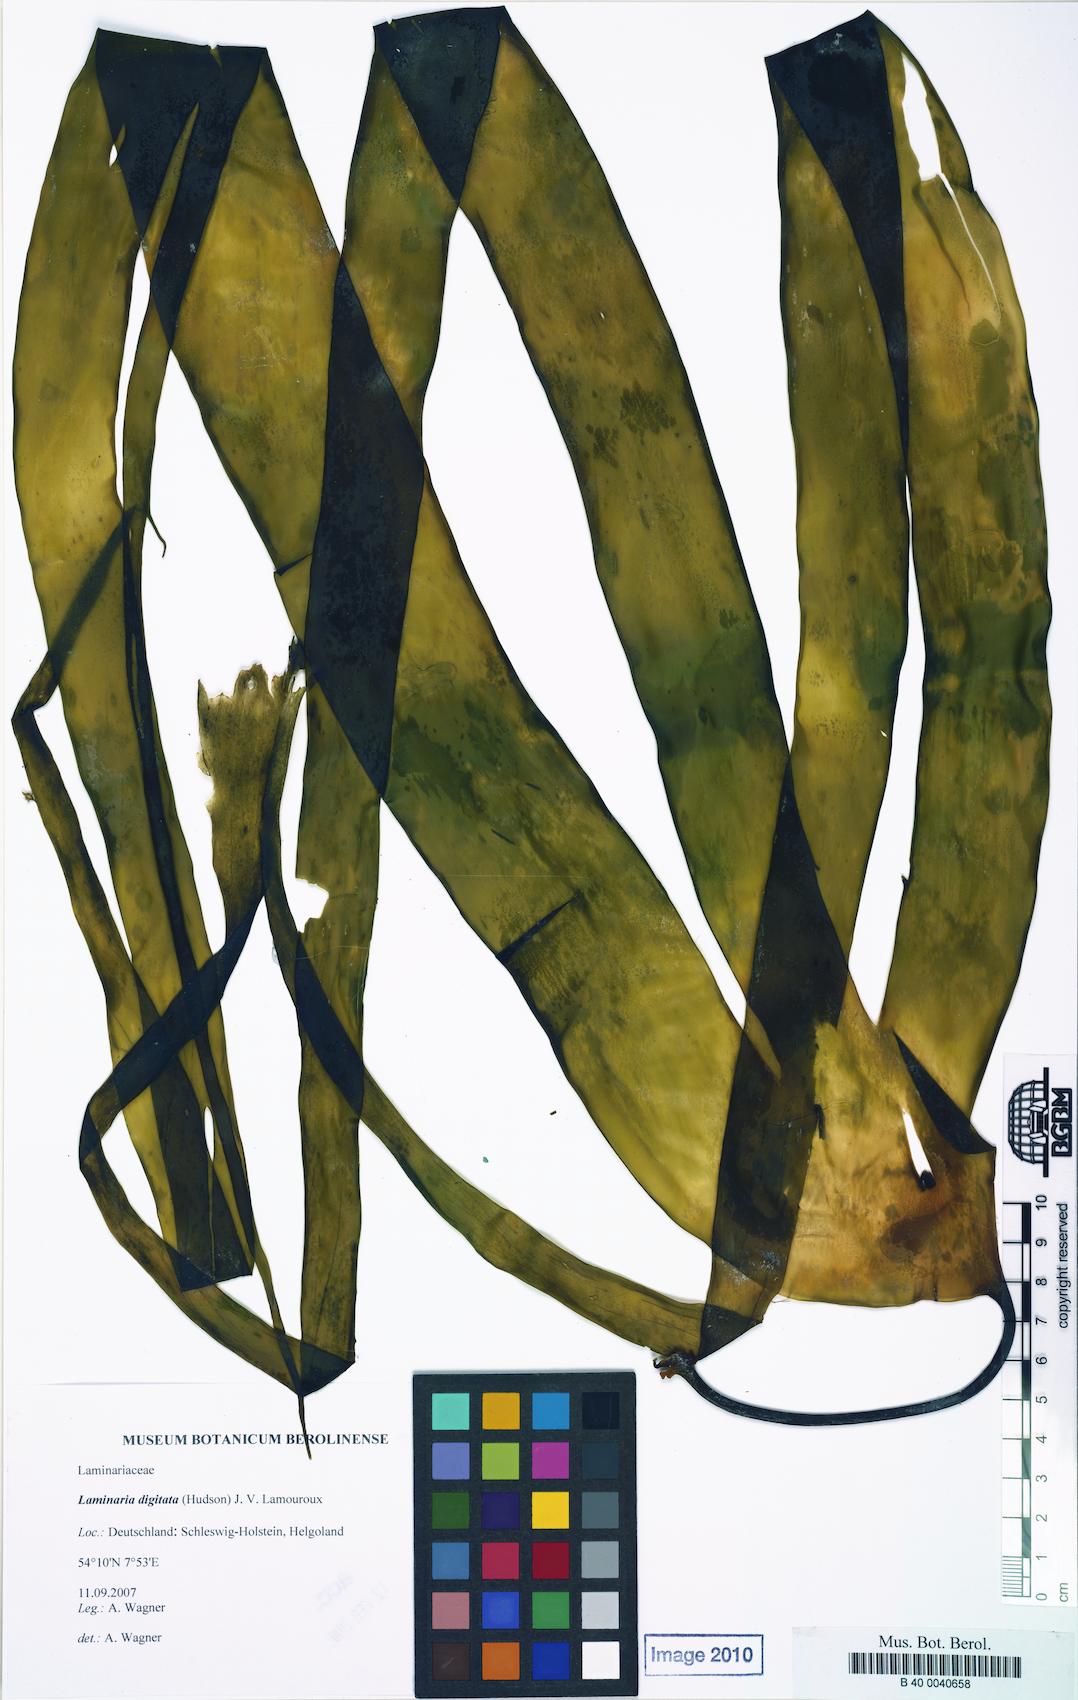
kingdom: Chromista
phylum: Ochrophyta
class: Phaeophyceae
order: Laminariales
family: Laminariaceae
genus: Laminaria
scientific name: Laminaria digitata
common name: Oarweed
